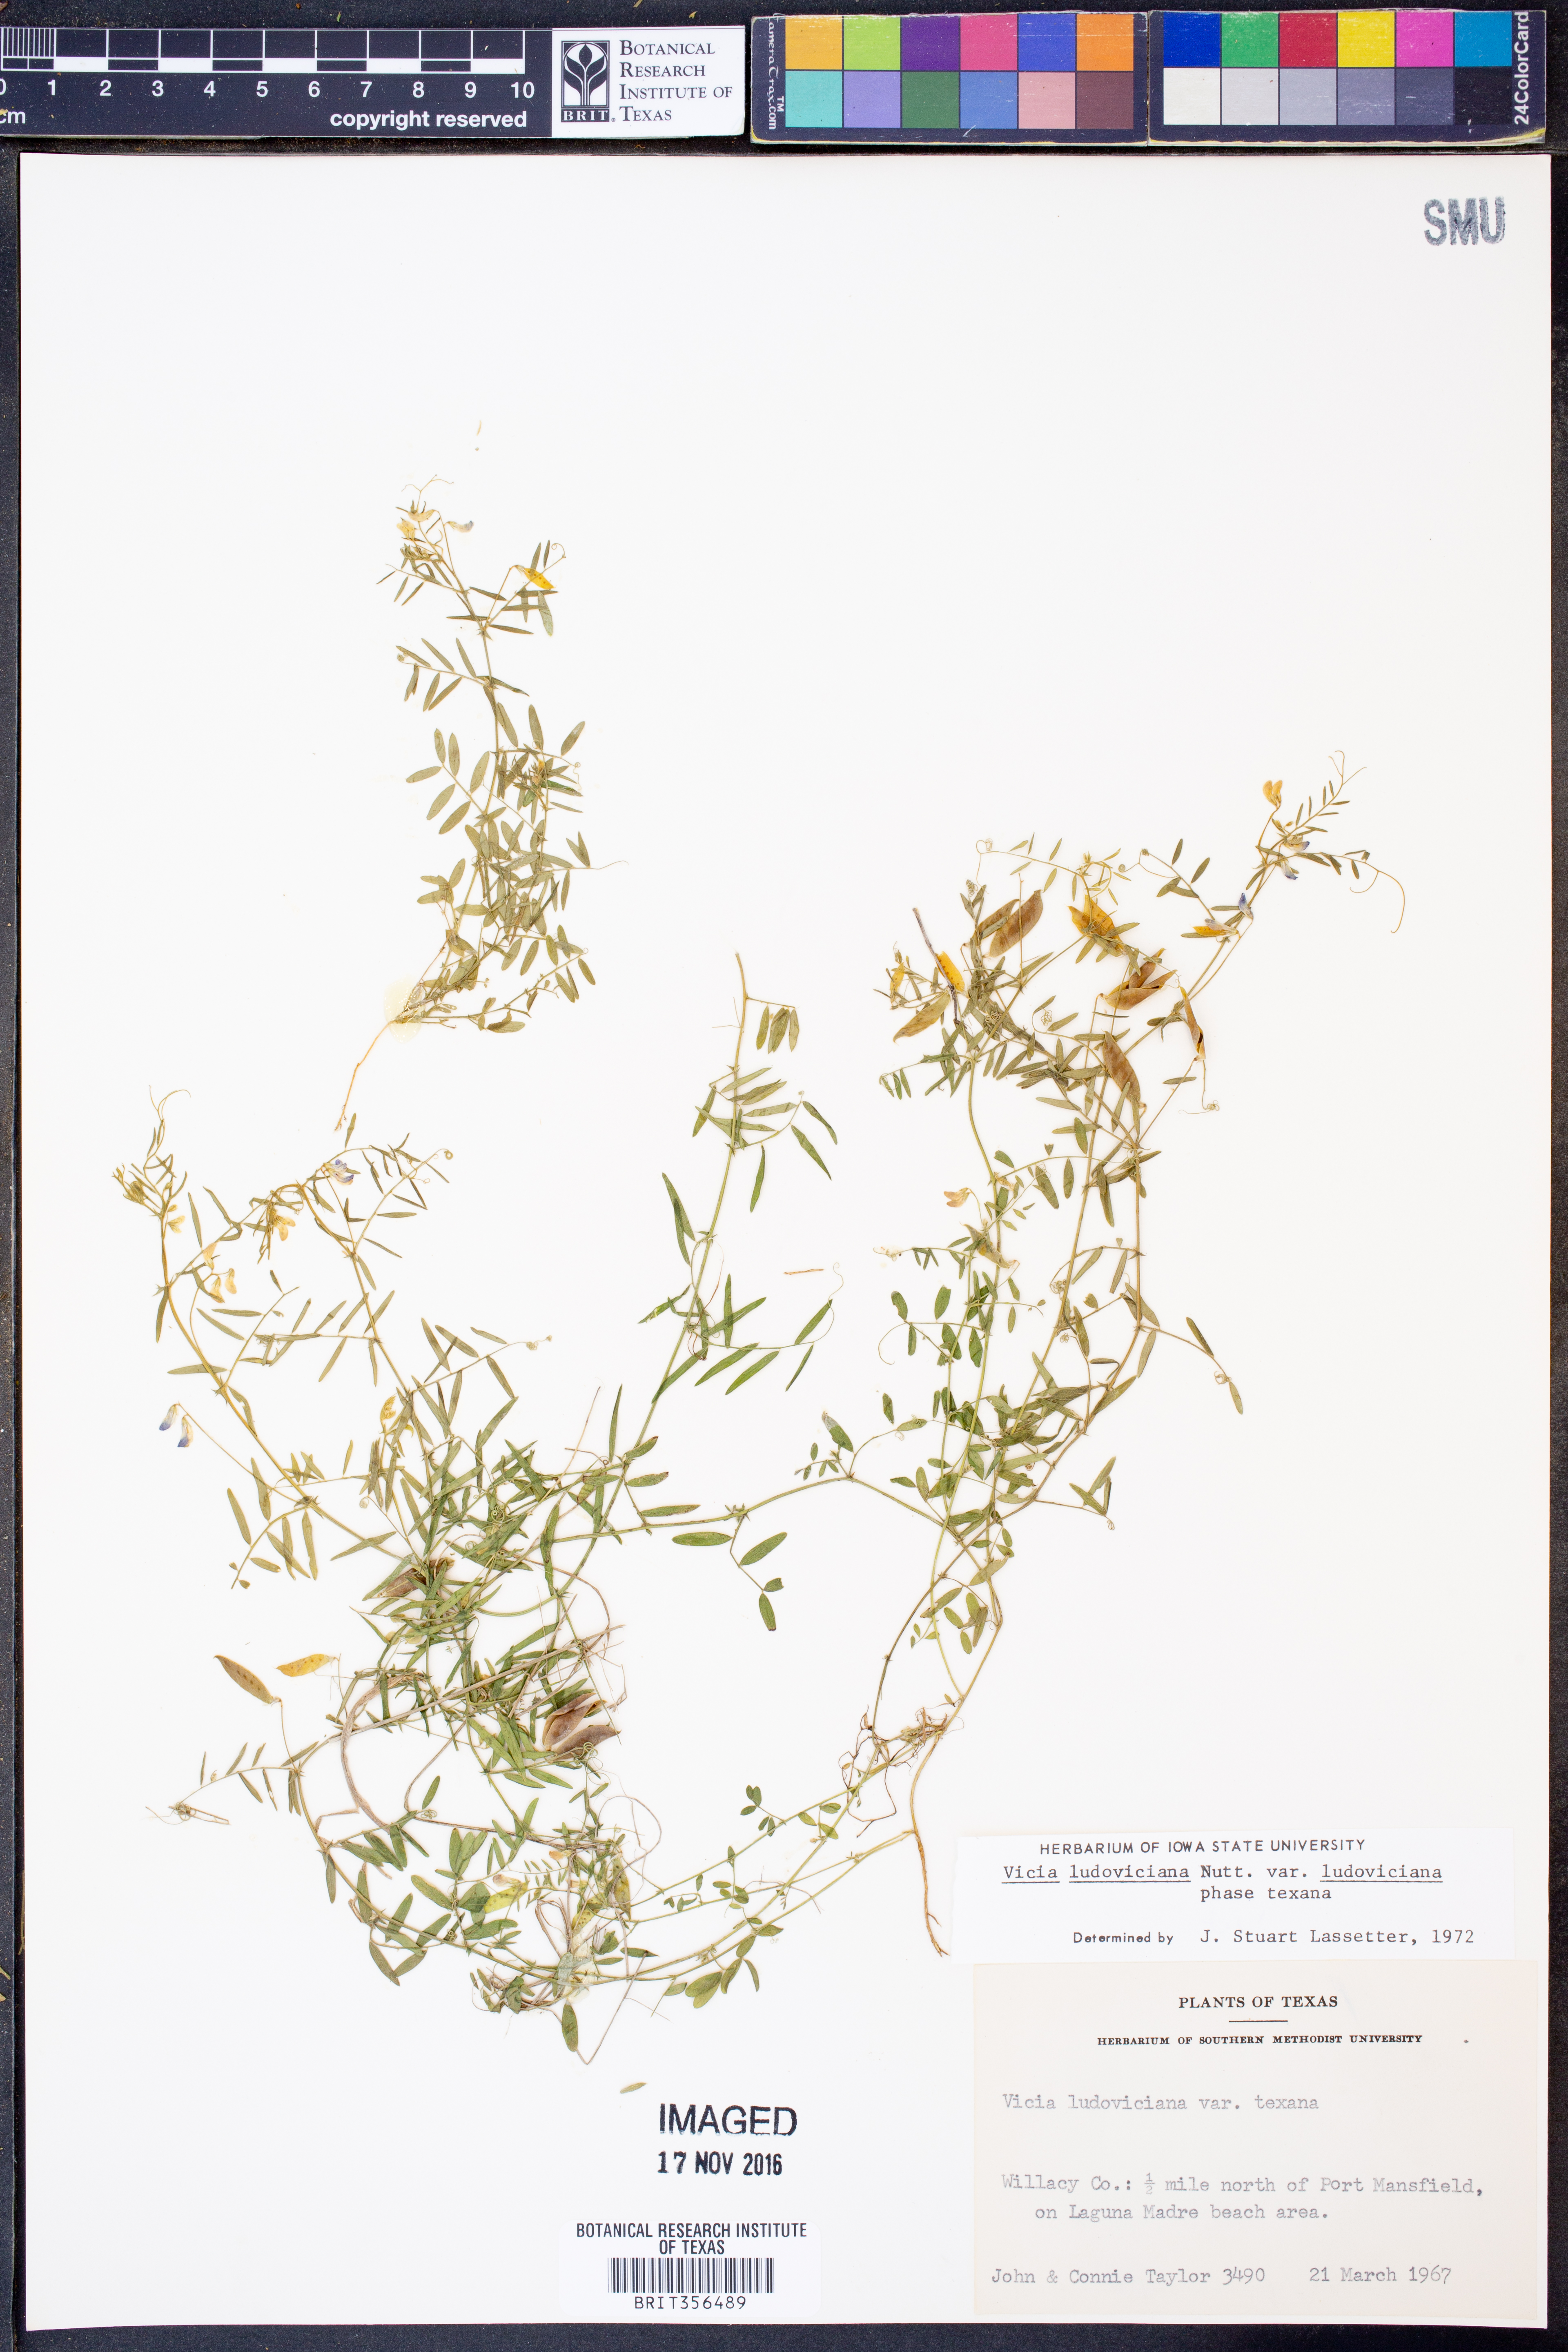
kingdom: Plantae
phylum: Tracheophyta
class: Magnoliopsida
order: Fabales
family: Fabaceae
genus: Vicia
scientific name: Vicia ludoviciana
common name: Louisiana vetch
